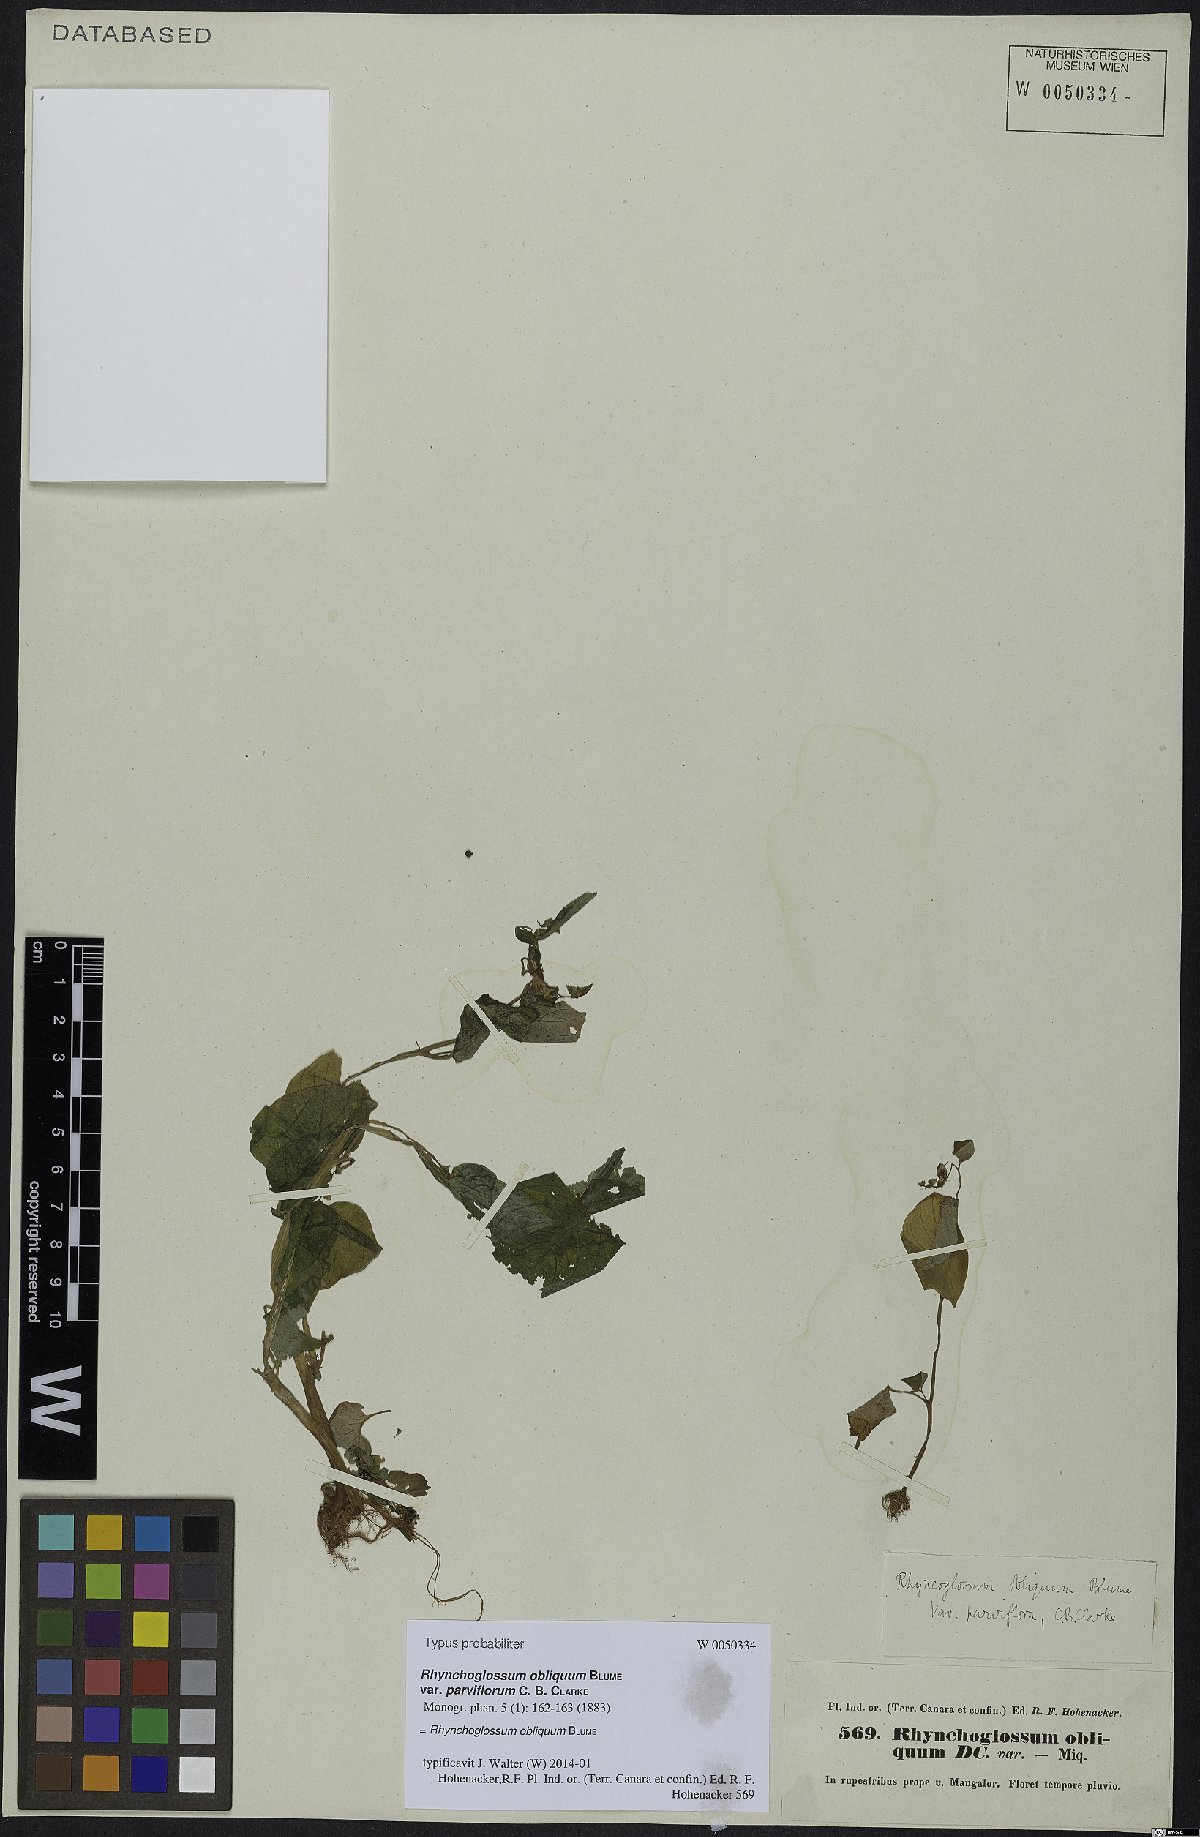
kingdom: Plantae
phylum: Tracheophyta
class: Magnoliopsida
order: Lamiales
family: Gesneriaceae
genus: Rhynchoglossum
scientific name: Rhynchoglossum obliquum
